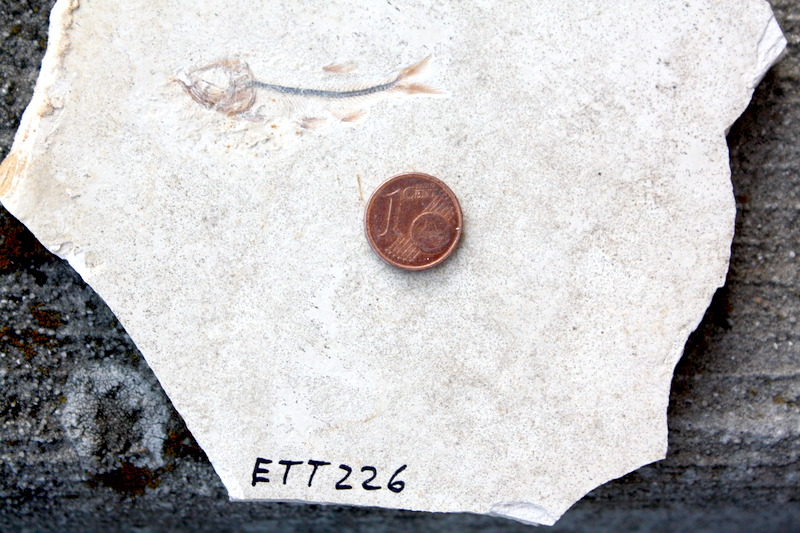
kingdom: Animalia
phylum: Chordata
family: Ascalaboidae
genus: Ebertichthys
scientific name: Ebertichthys ettlingensis
